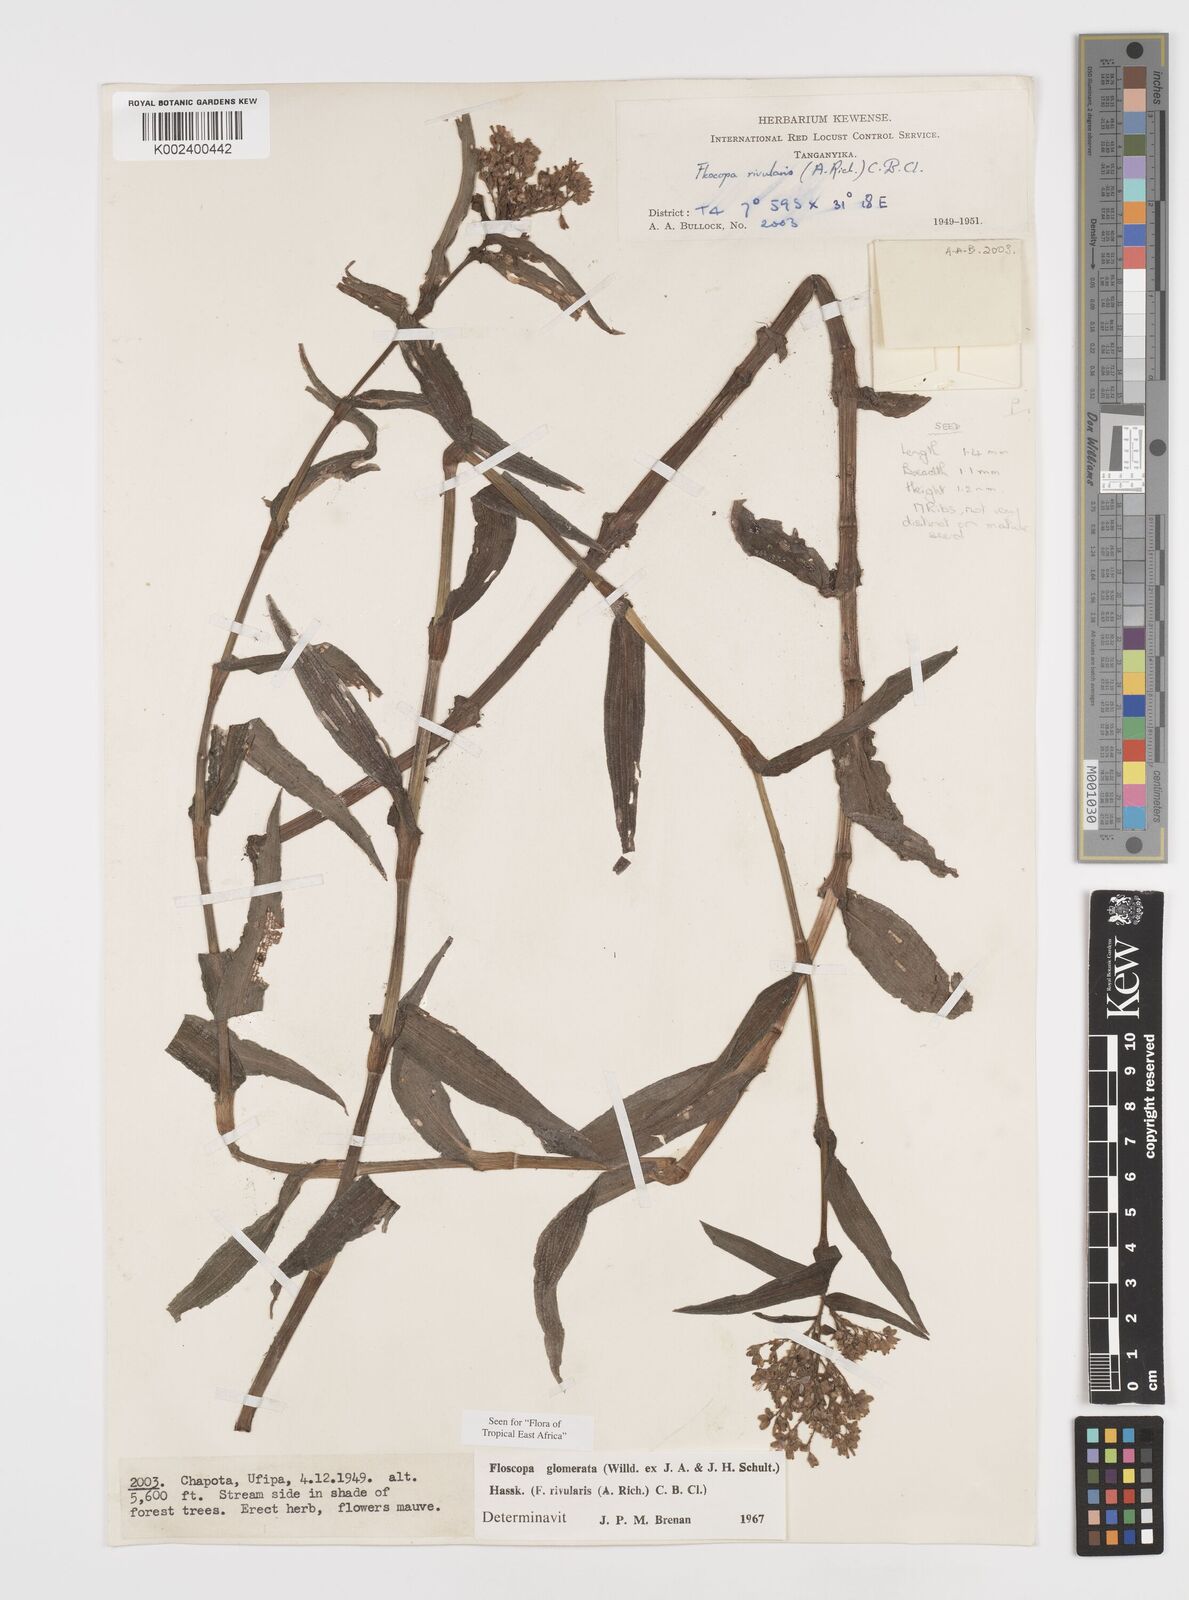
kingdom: Plantae
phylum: Tracheophyta
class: Liliopsida
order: Commelinales
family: Commelinaceae
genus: Floscopa
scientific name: Floscopa glomerata
